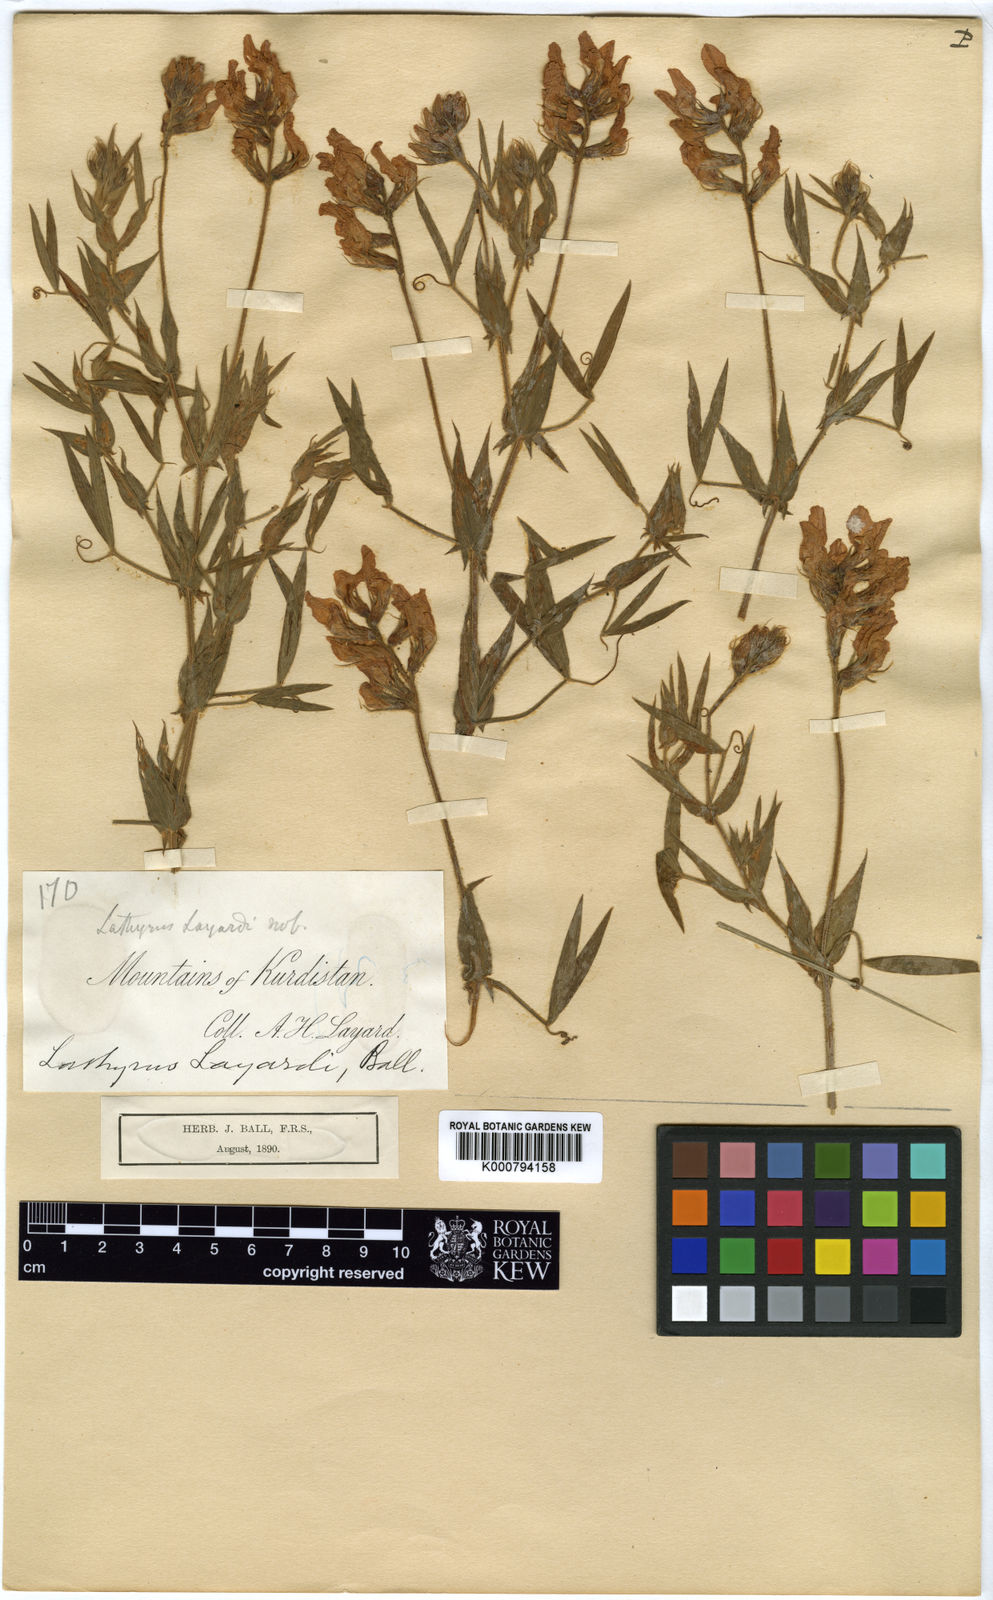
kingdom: Plantae
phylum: Tracheophyta
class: Magnoliopsida
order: Fabales
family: Fabaceae
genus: Lathyrus
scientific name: Lathyrus layardii
